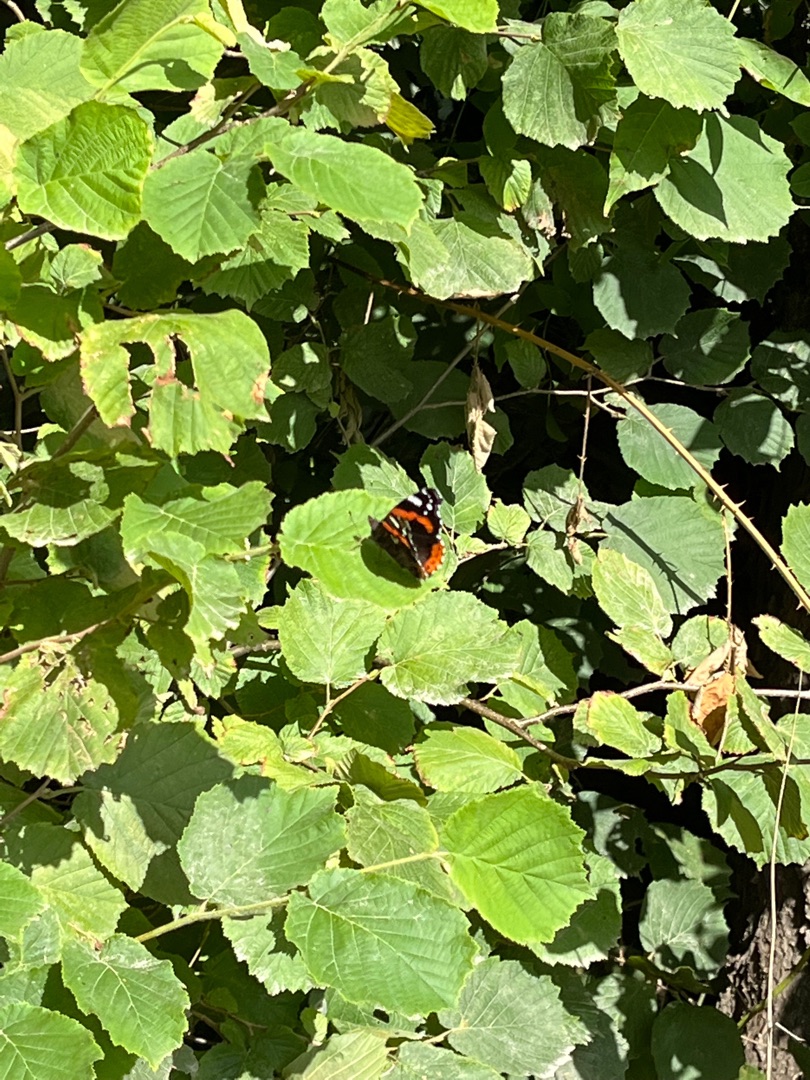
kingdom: Animalia
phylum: Arthropoda
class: Insecta
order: Lepidoptera
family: Nymphalidae
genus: Vanessa
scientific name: Vanessa atalanta
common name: Admiral
